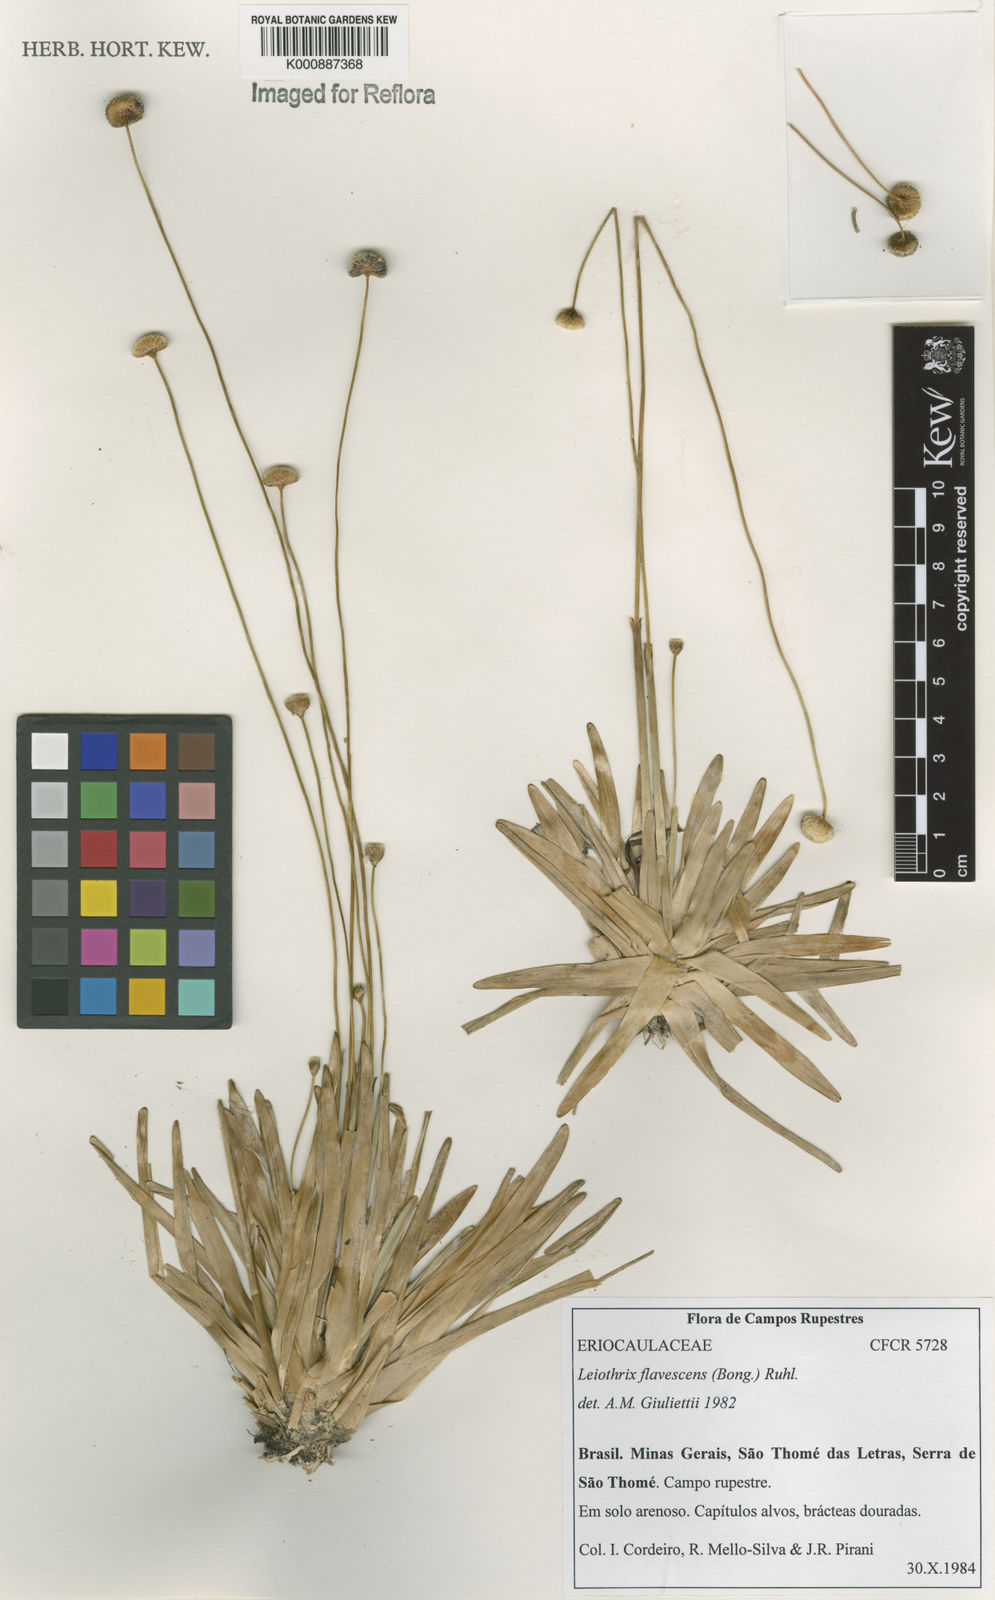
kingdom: Plantae
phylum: Tracheophyta
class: Liliopsida
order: Poales
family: Eriocaulaceae
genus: Leiothrix
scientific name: Leiothrix flavescens
